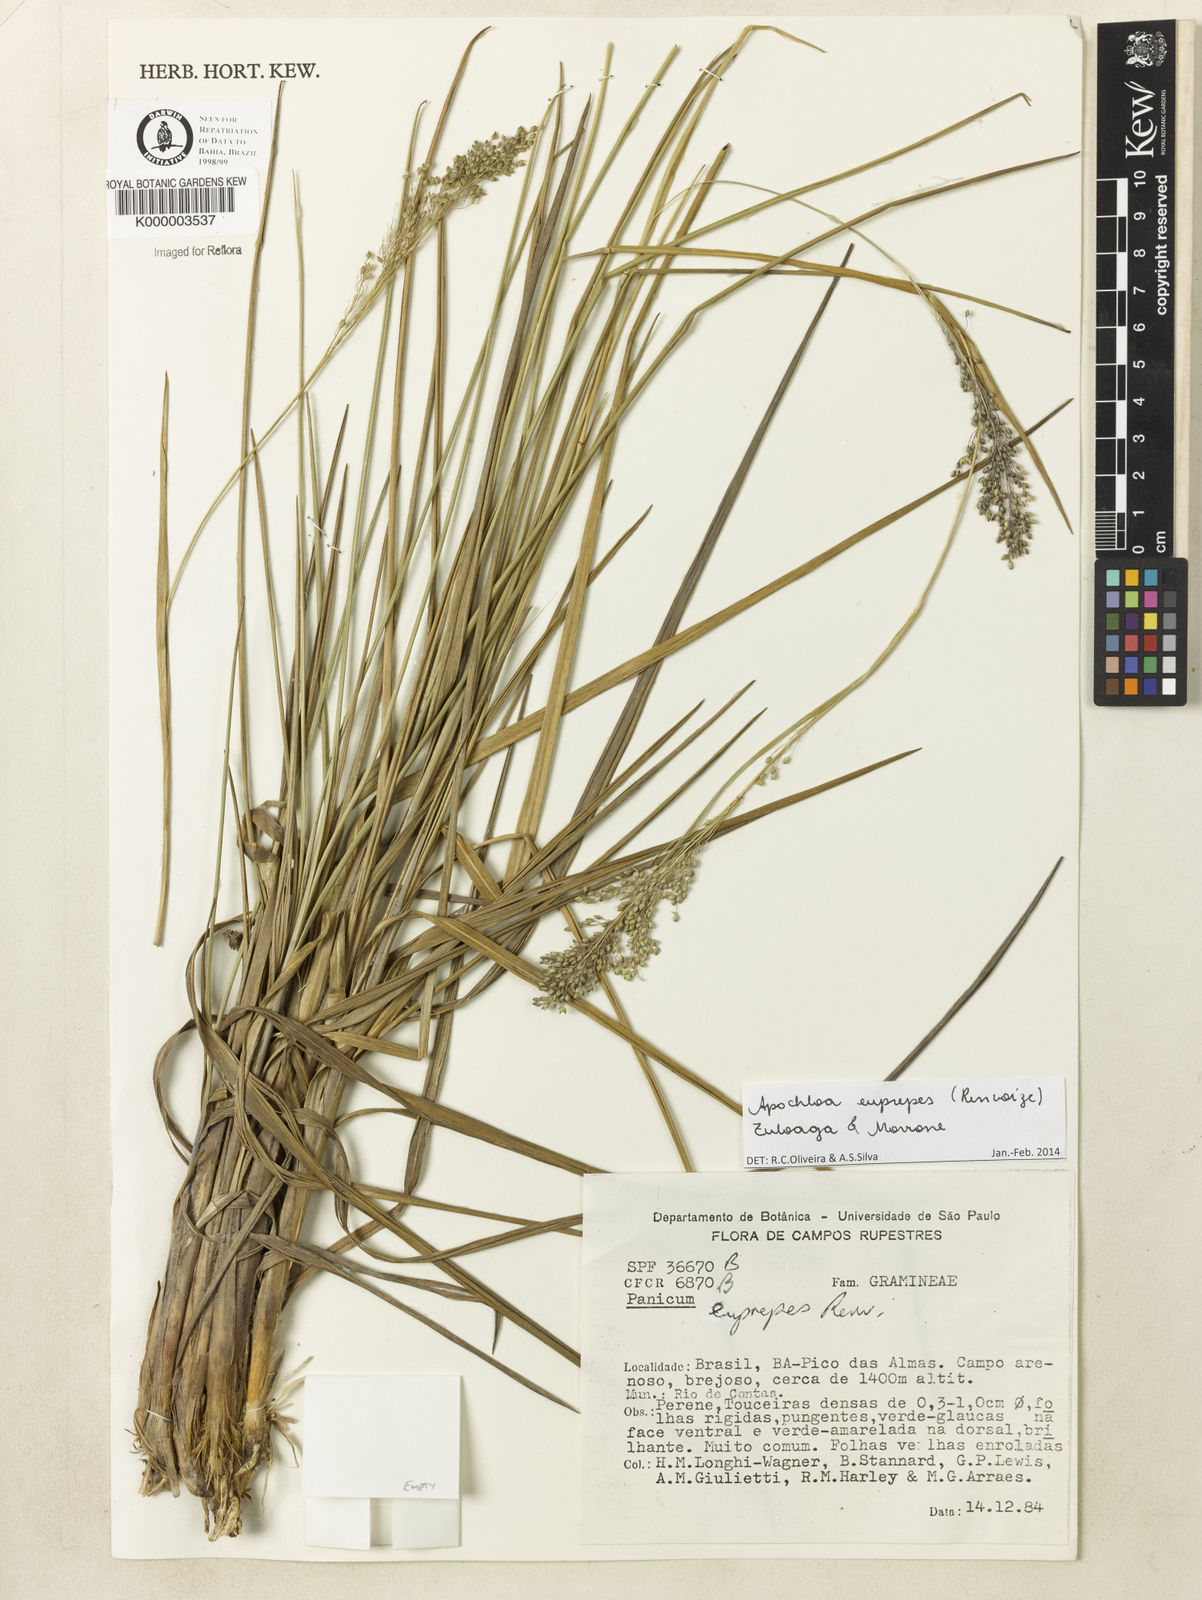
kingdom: Plantae
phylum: Tracheophyta
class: Liliopsida
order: Poales
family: Poaceae
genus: Apochloa
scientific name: Apochloa euprepes
